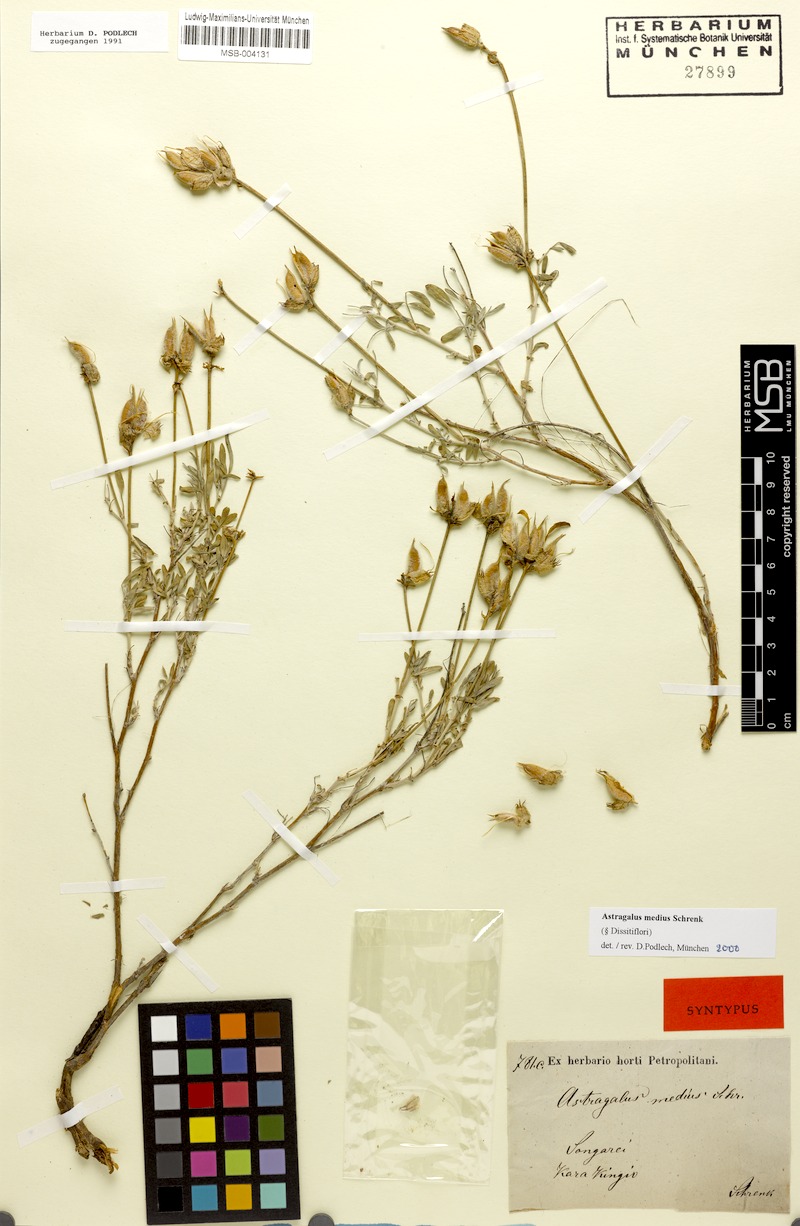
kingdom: Plantae
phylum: Tracheophyta
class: Magnoliopsida
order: Fabales
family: Fabaceae
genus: Astragalus
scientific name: Astragalus medius
